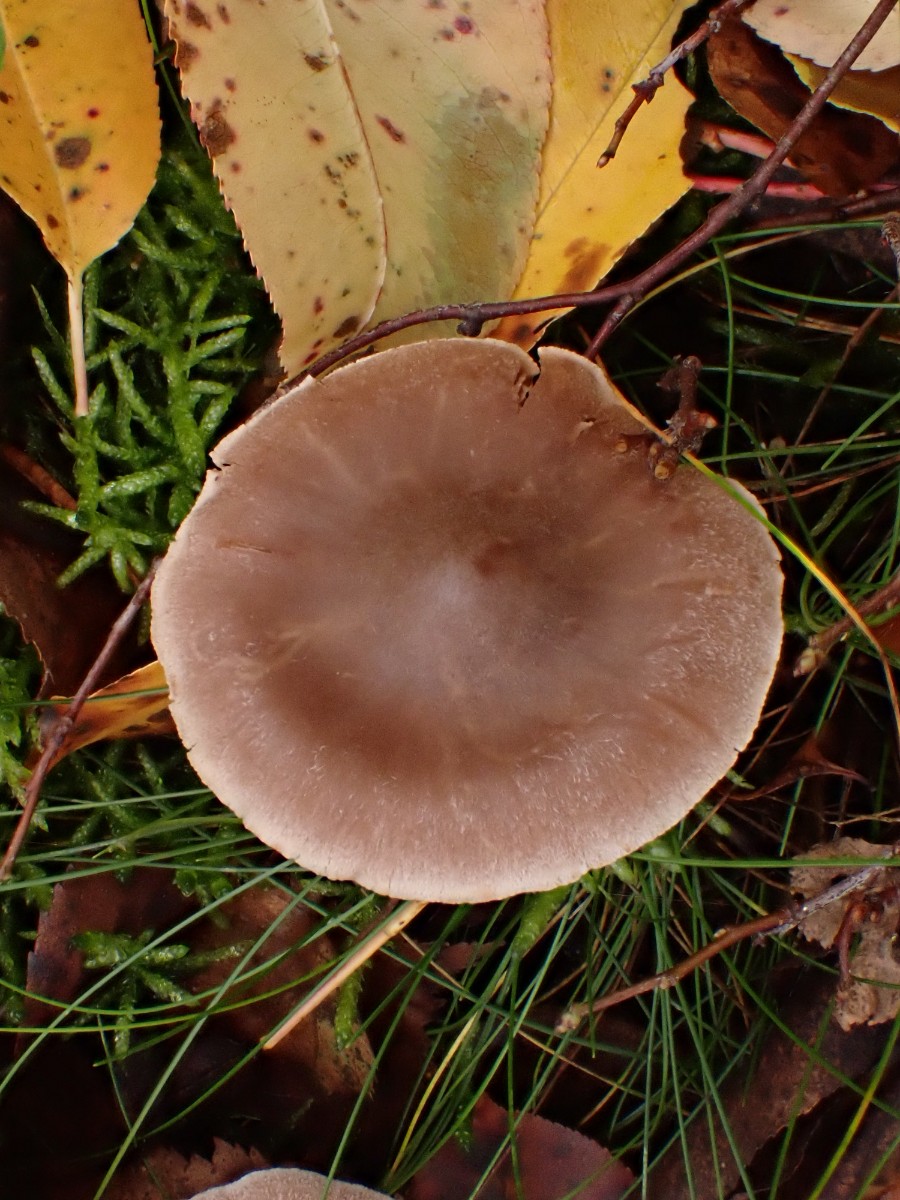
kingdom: Fungi
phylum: Basidiomycota
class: Agaricomycetes
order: Agaricales
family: Cortinariaceae
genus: Cortinarius
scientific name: Cortinarius hemitrichus
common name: hvidfnugget slørhat
